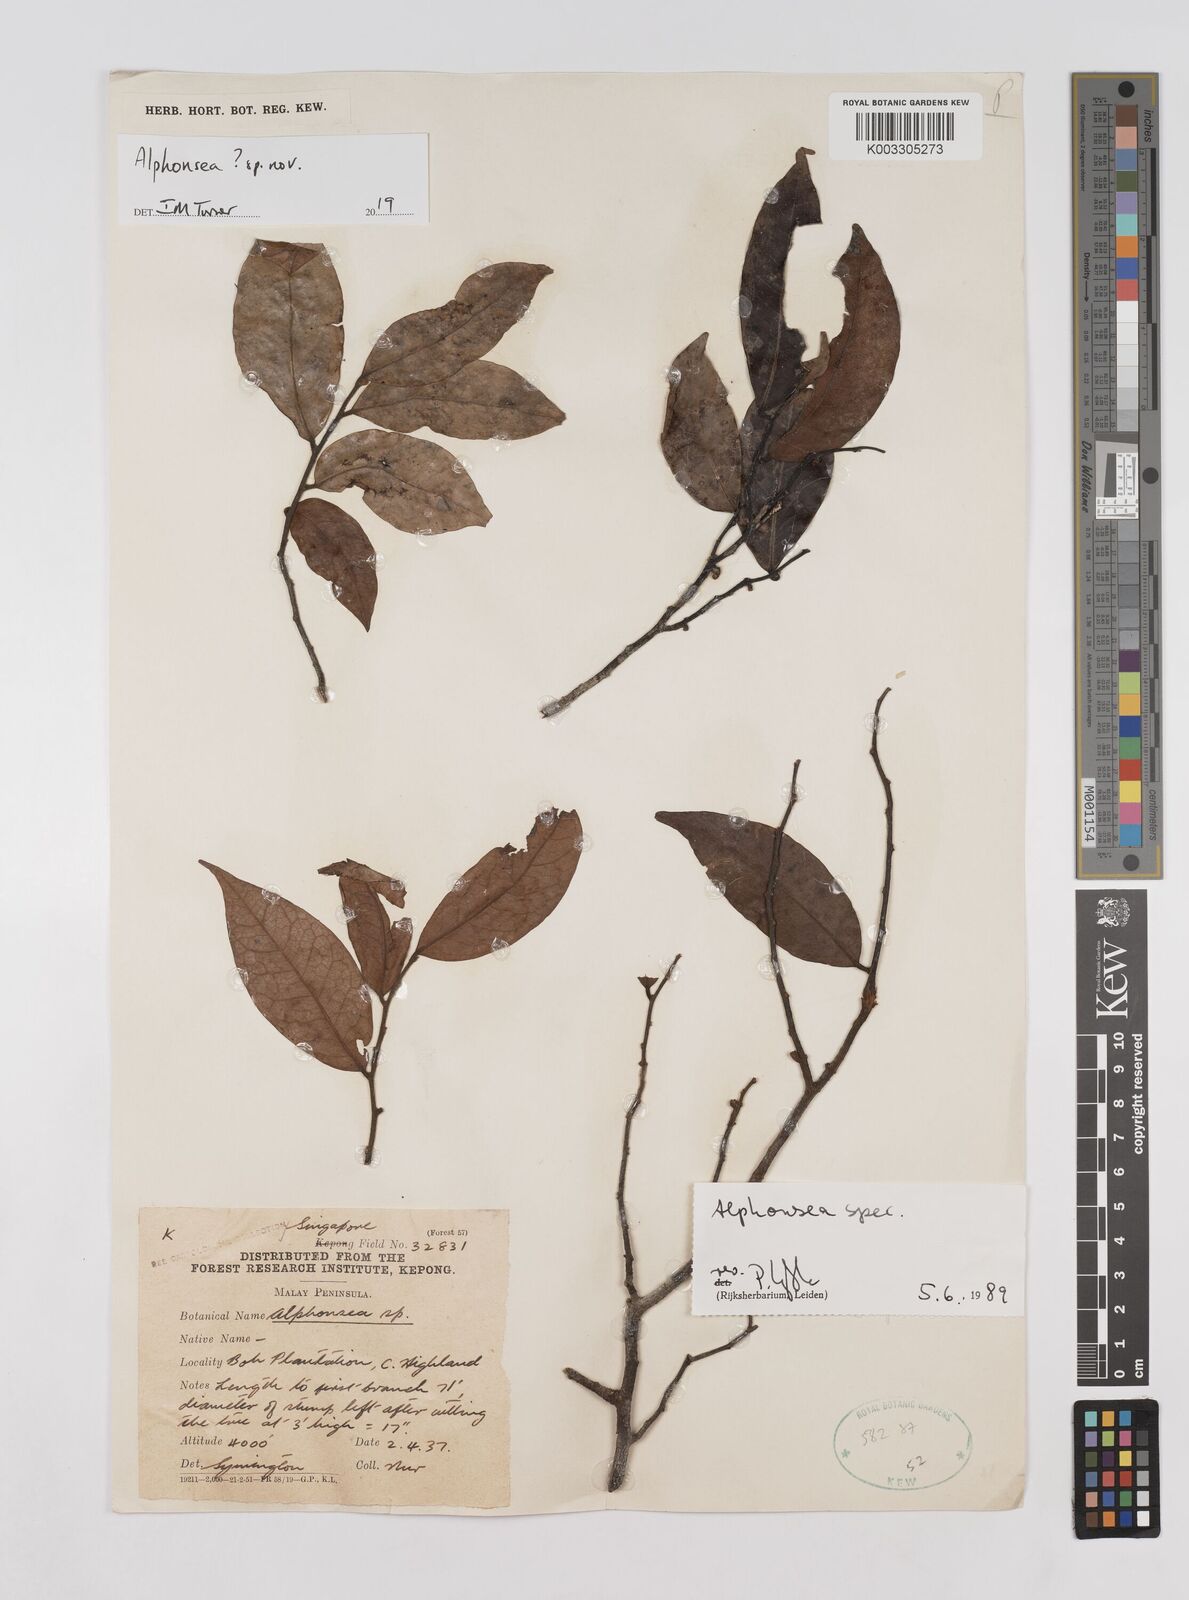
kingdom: Plantae
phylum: Tracheophyta
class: Magnoliopsida
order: Magnoliales
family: Annonaceae
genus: Alphonsea
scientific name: Alphonsea
